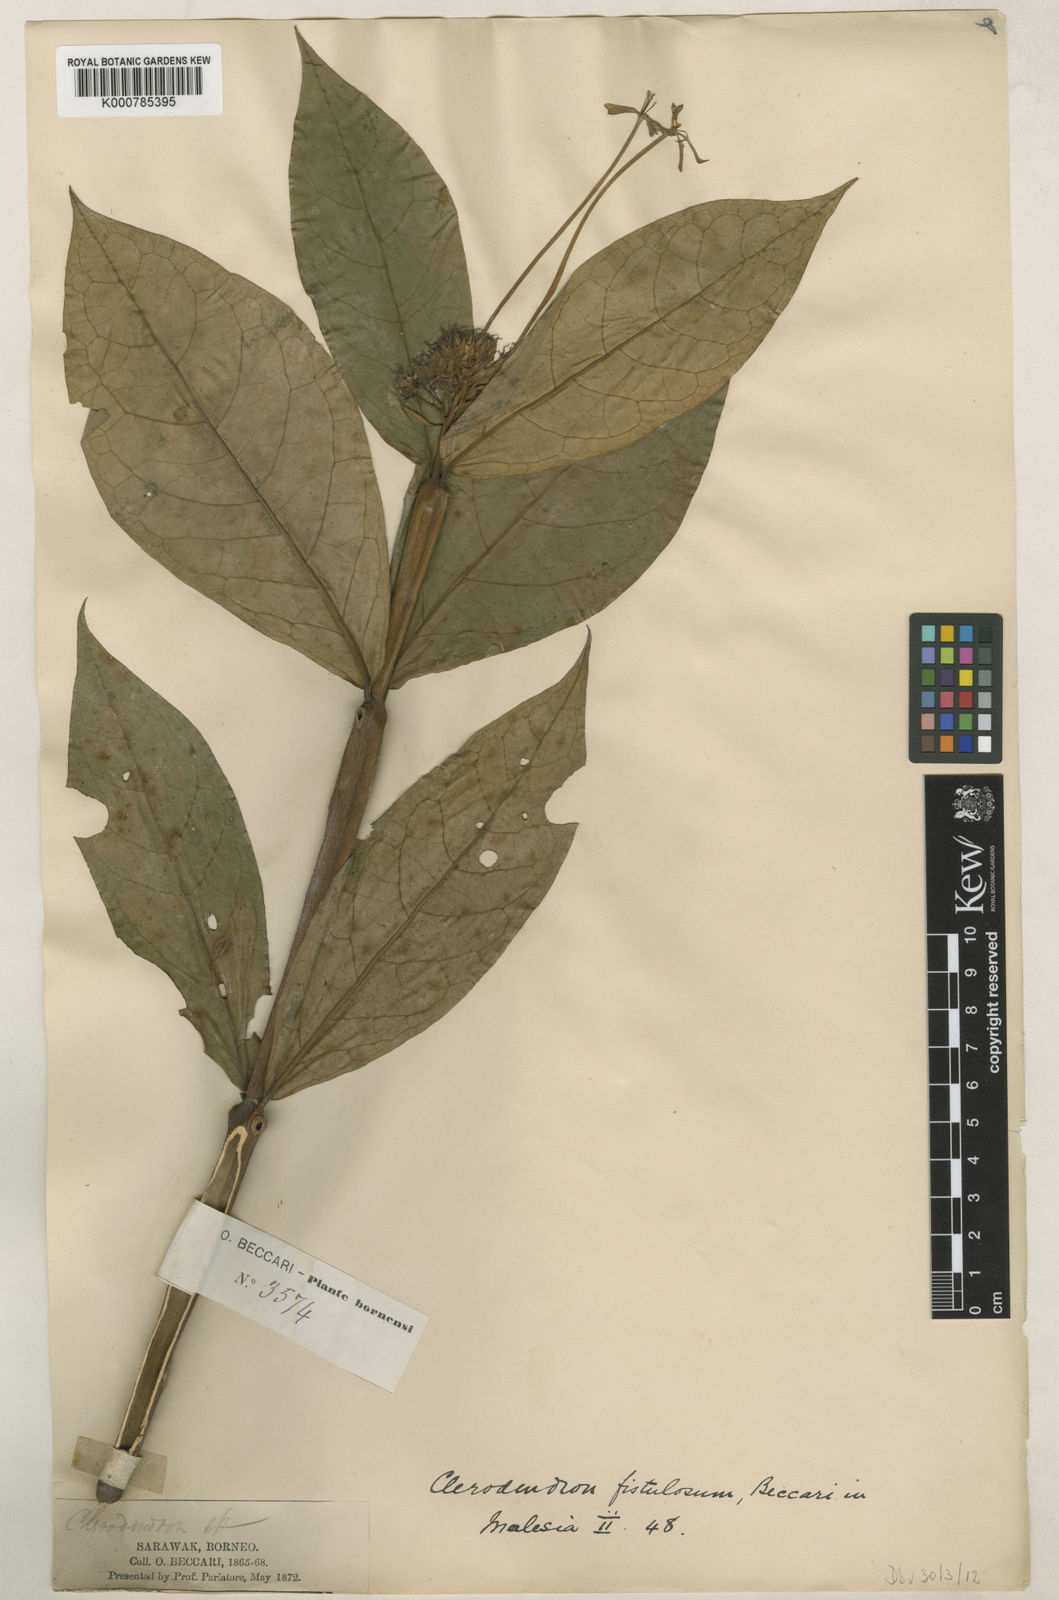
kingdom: Plantae
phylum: Tracheophyta
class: Magnoliopsida
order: Lamiales
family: Lamiaceae
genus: Clerodendrum
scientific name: Clerodendrum fistulosum
